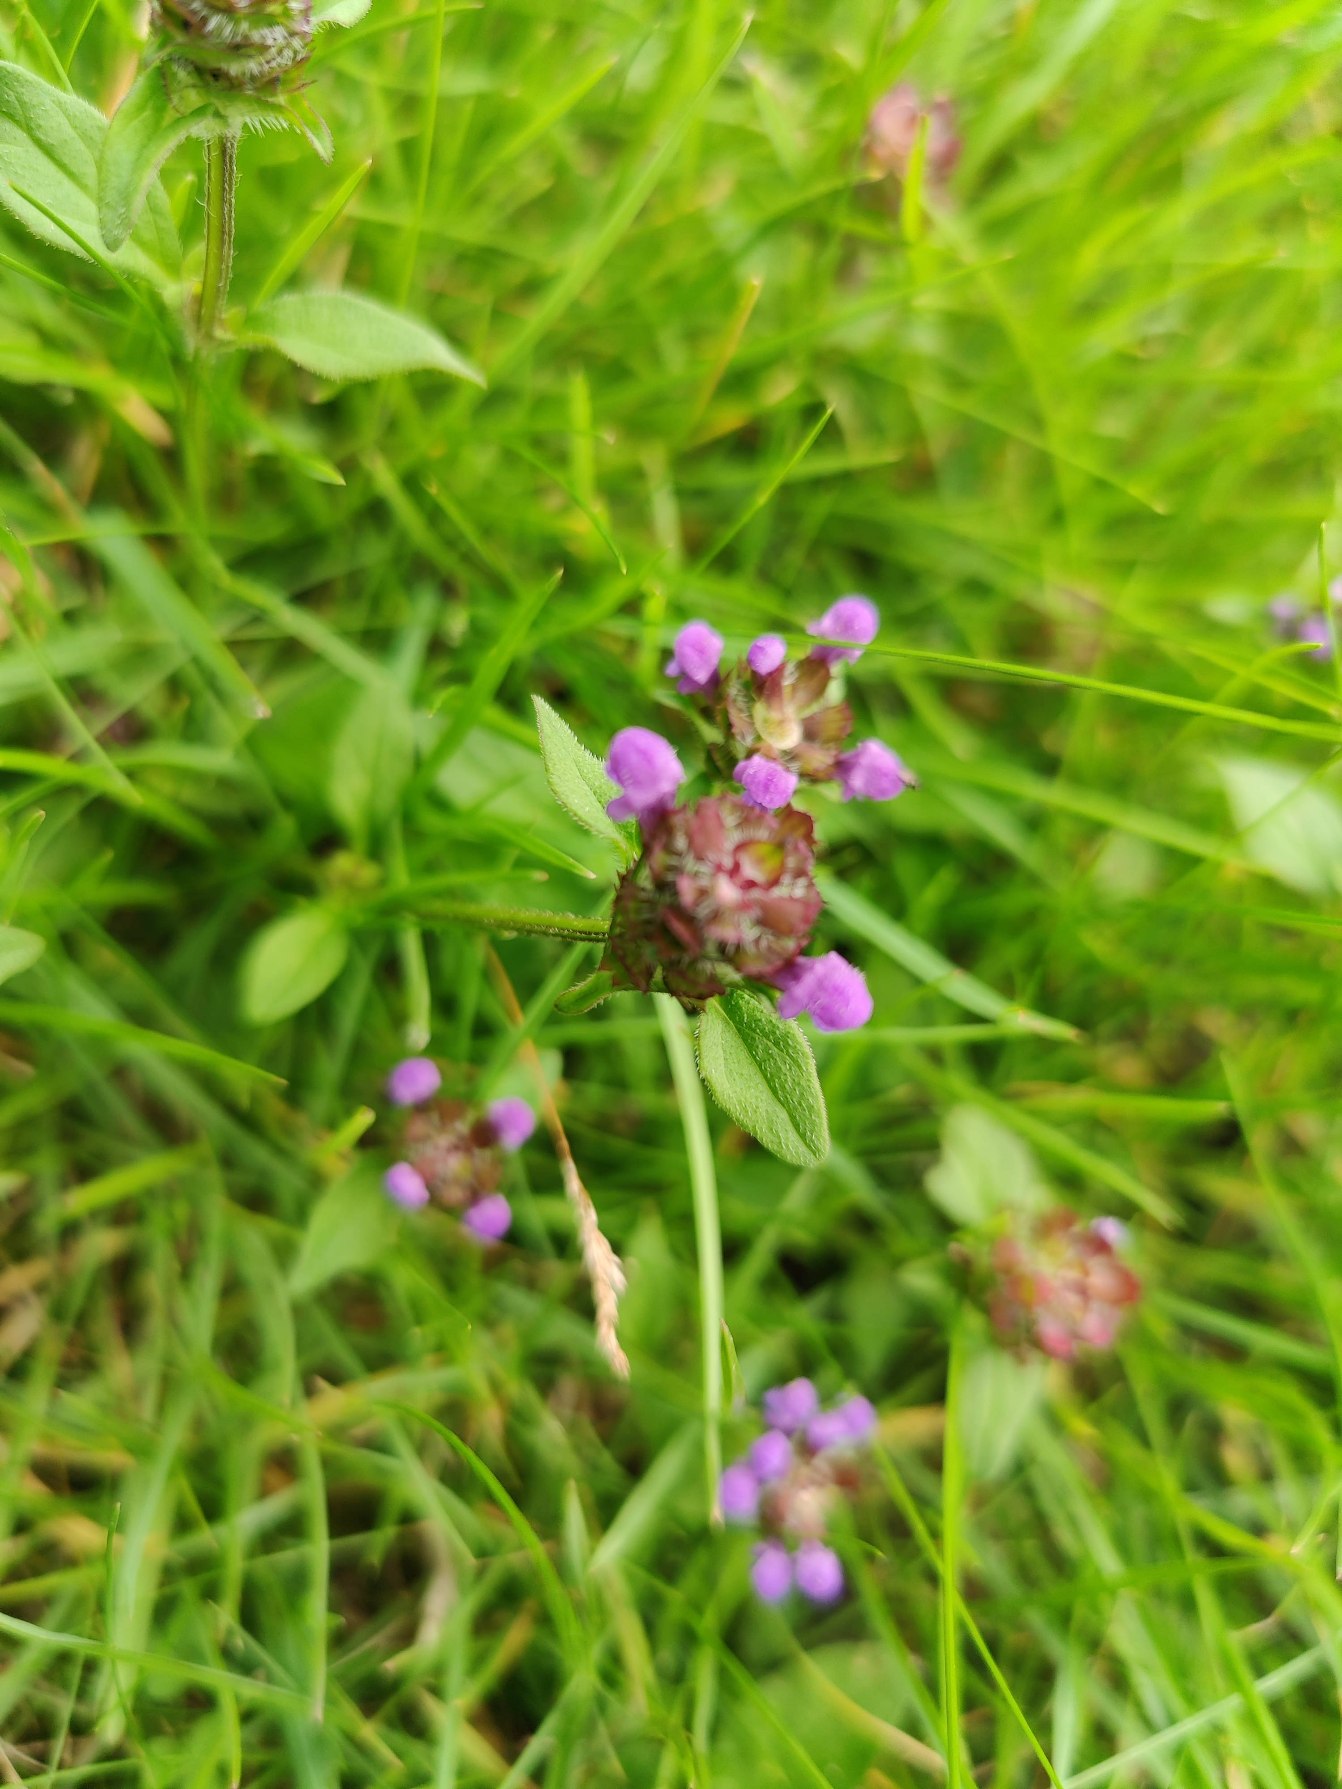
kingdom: Plantae
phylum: Tracheophyta
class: Magnoliopsida
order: Lamiales
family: Lamiaceae
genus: Prunella
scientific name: Prunella vulgaris
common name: Almindelig brunelle
